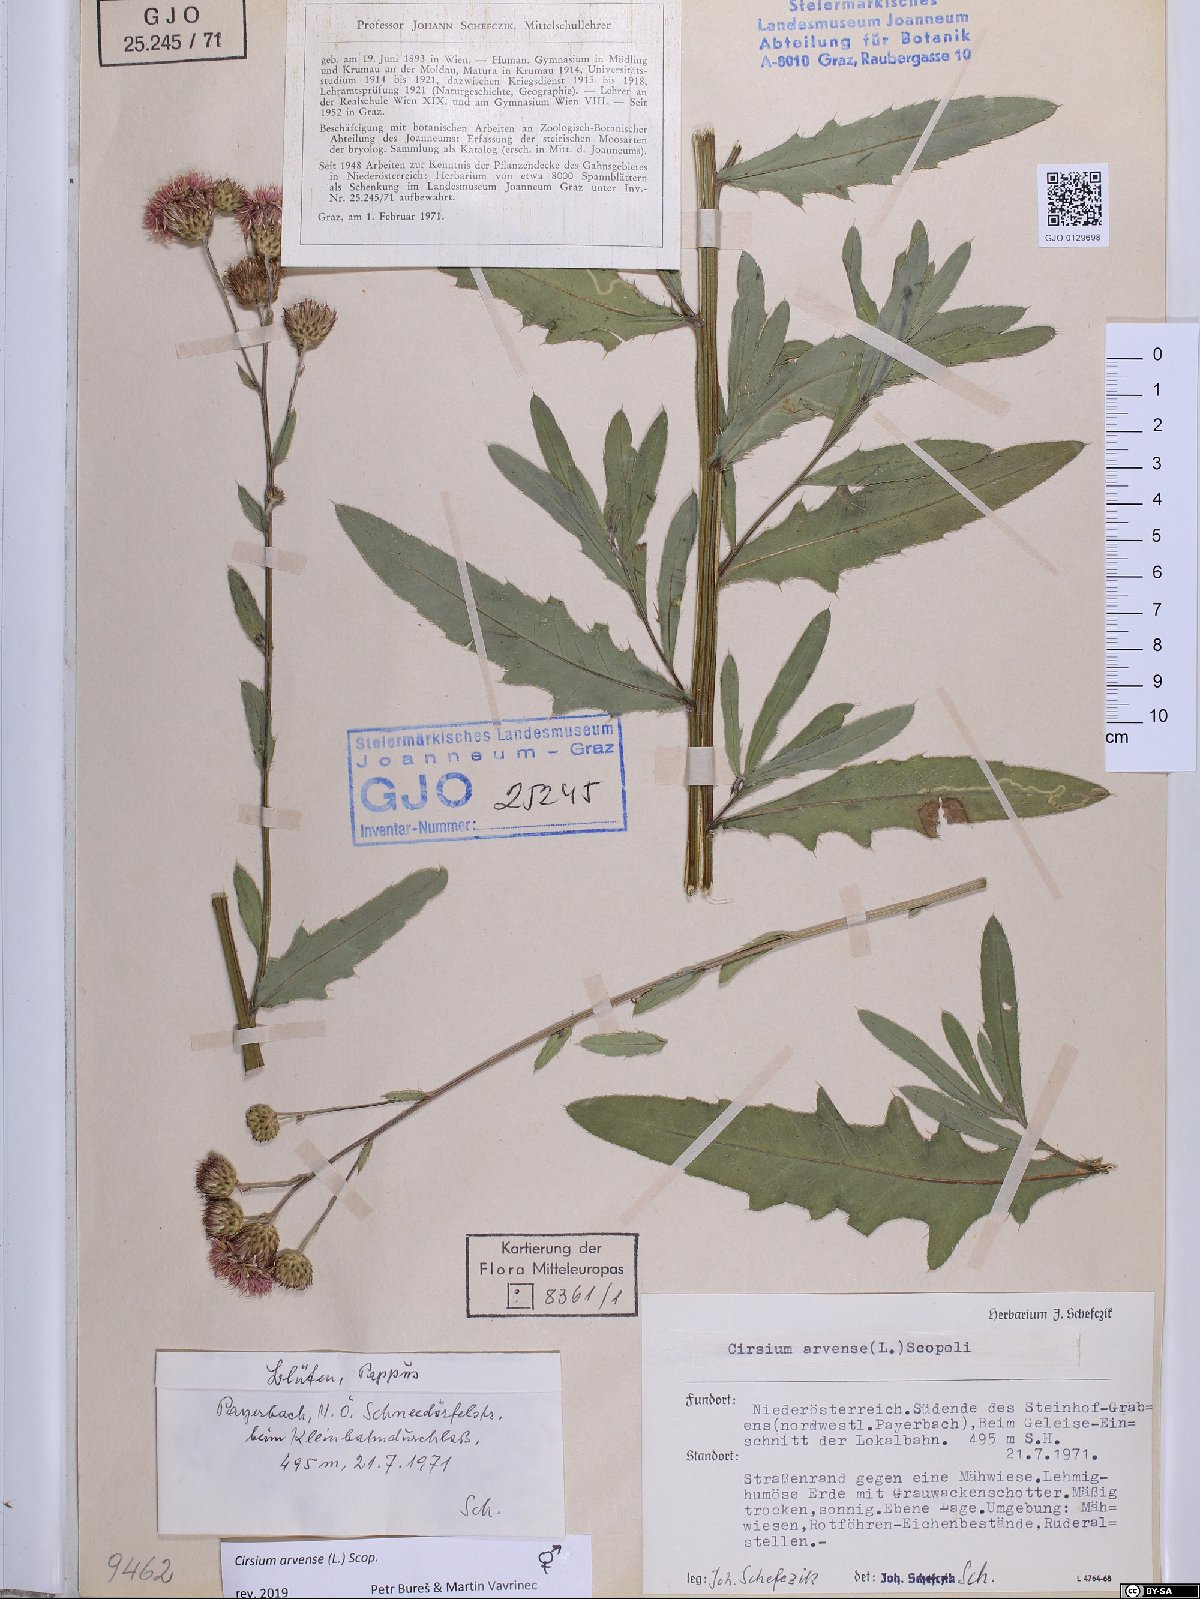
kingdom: Plantae
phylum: Tracheophyta
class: Magnoliopsida
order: Asterales
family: Asteraceae
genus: Cirsium
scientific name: Cirsium arvense
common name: Creeping thistle
